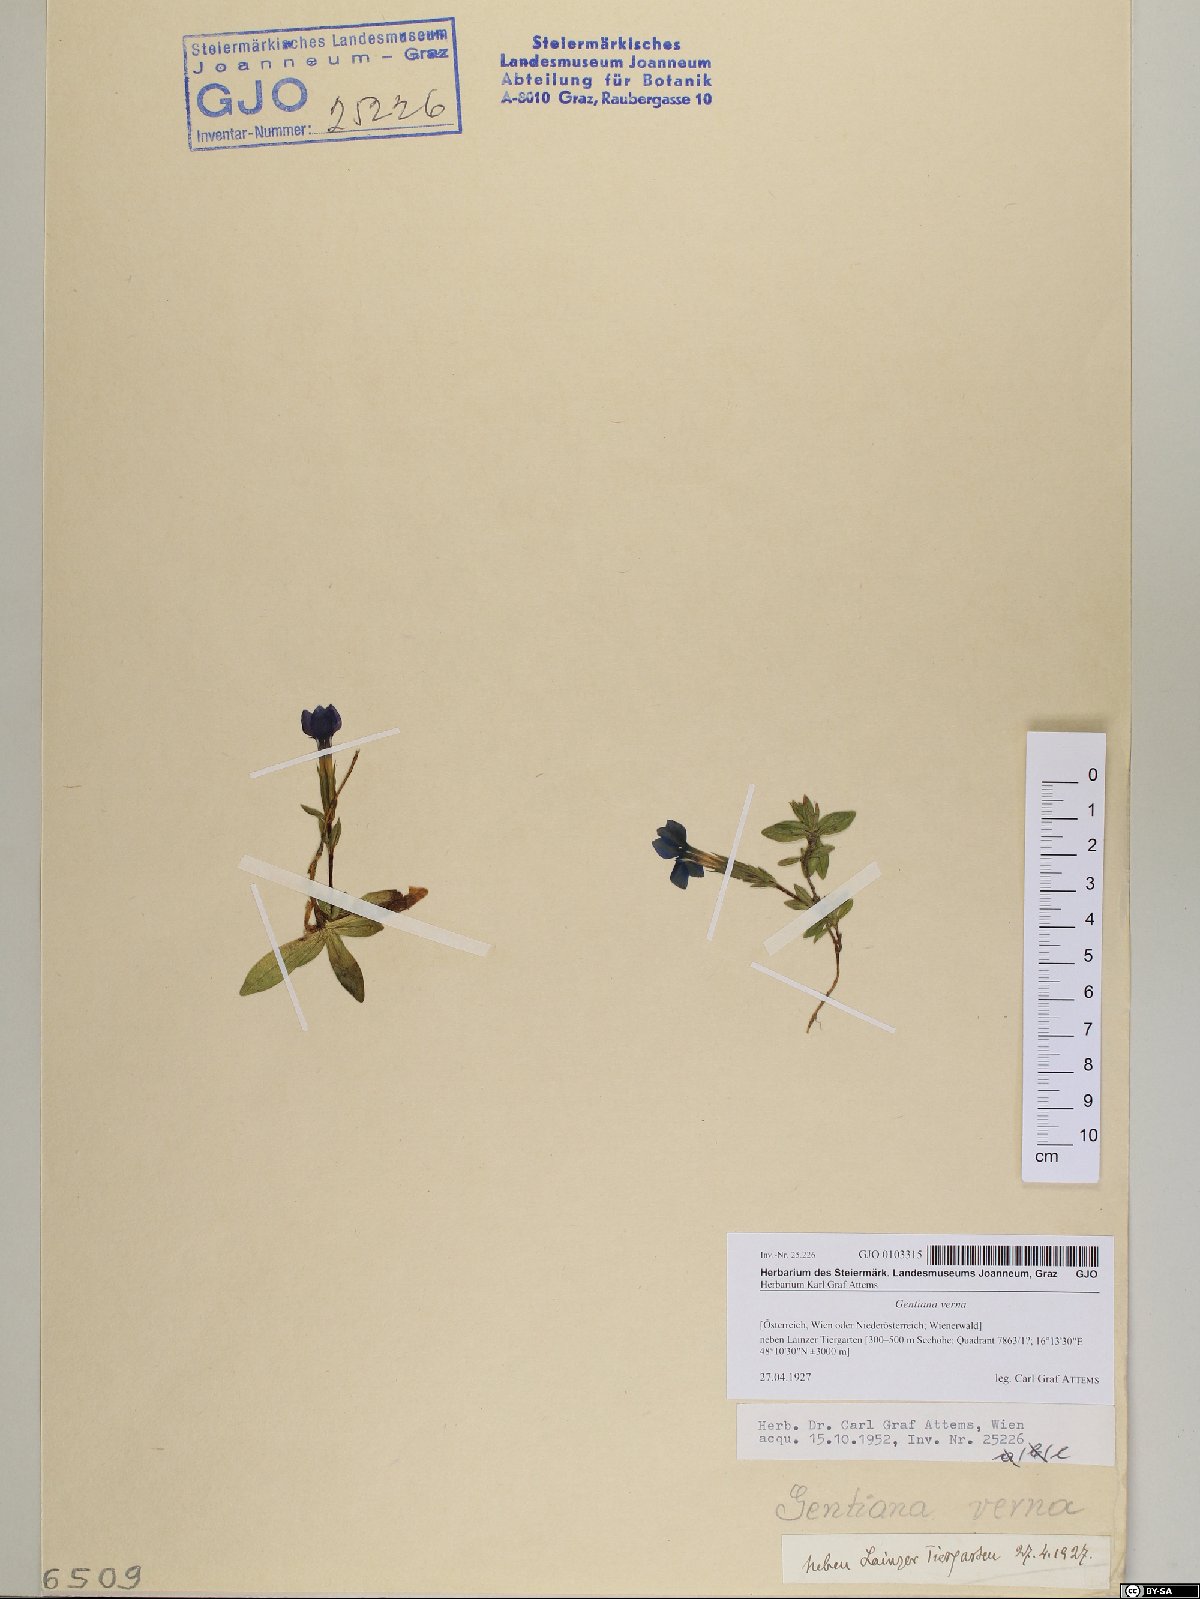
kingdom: Plantae
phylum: Tracheophyta
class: Magnoliopsida
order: Gentianales
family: Gentianaceae
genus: Gentiana
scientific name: Gentiana verna
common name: Spring gentian
